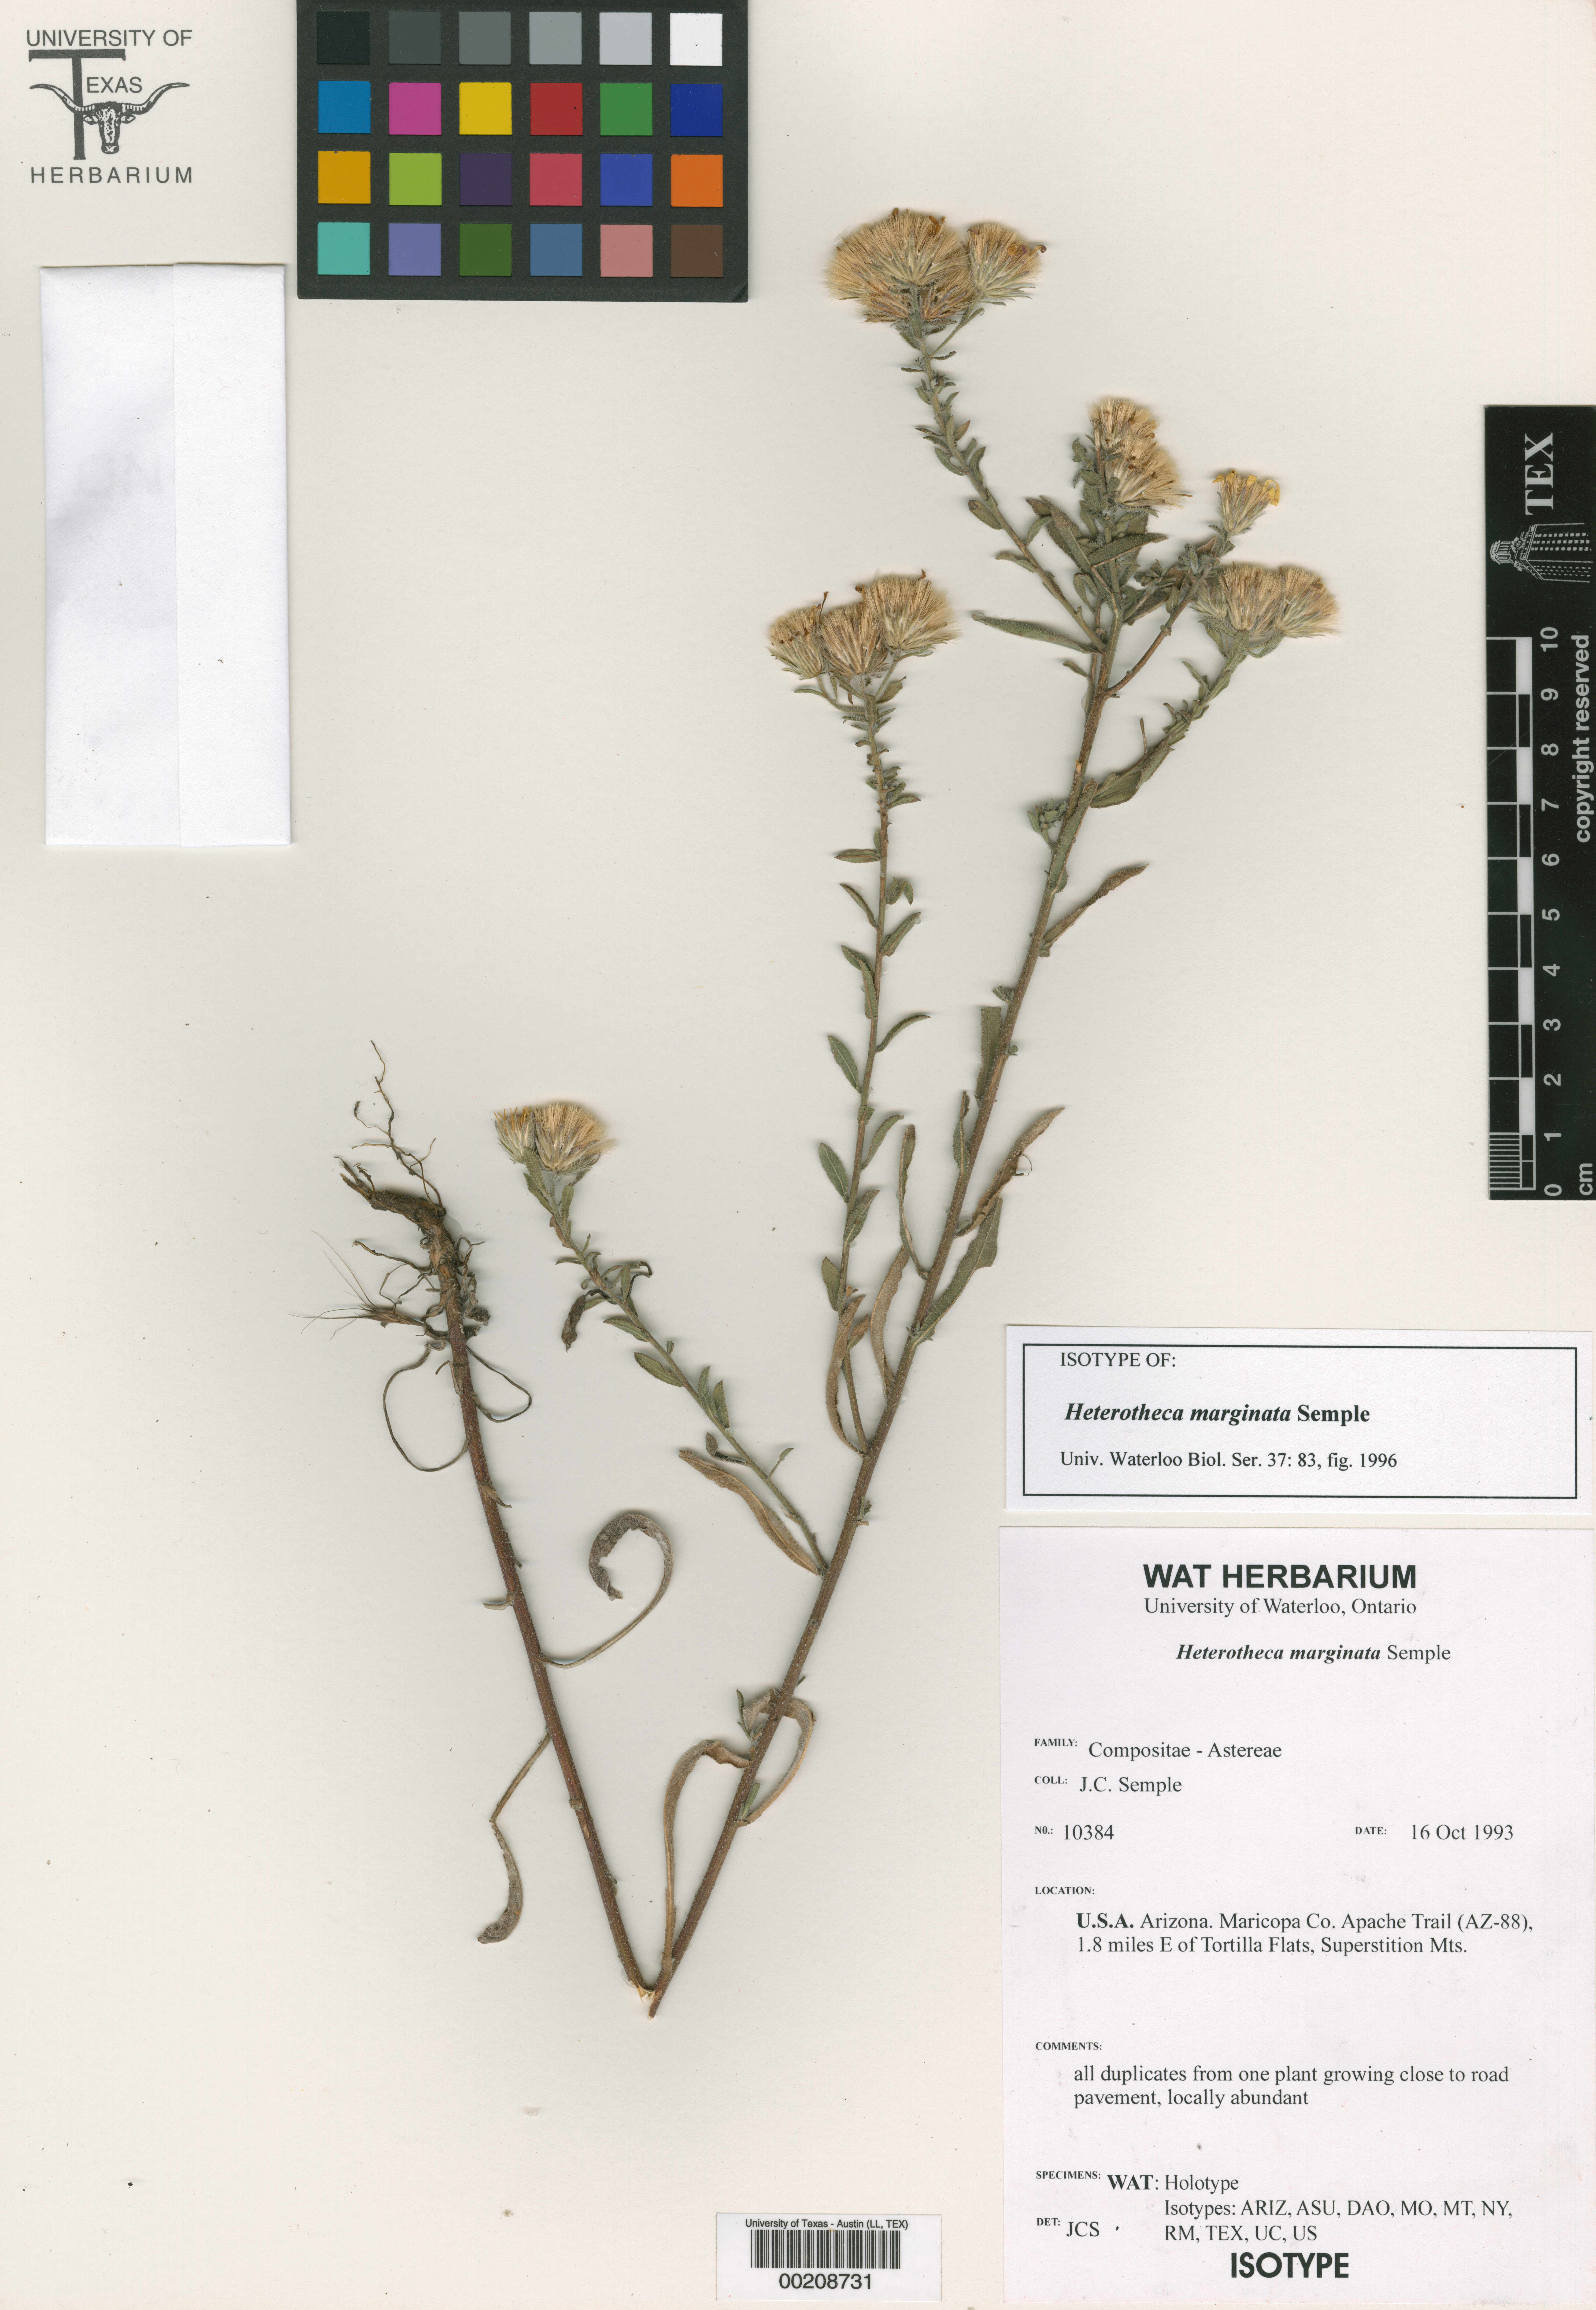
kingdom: Plantae
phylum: Tracheophyta
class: Magnoliopsida
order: Malpighiales
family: Hypericaceae
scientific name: Hypericaceae
